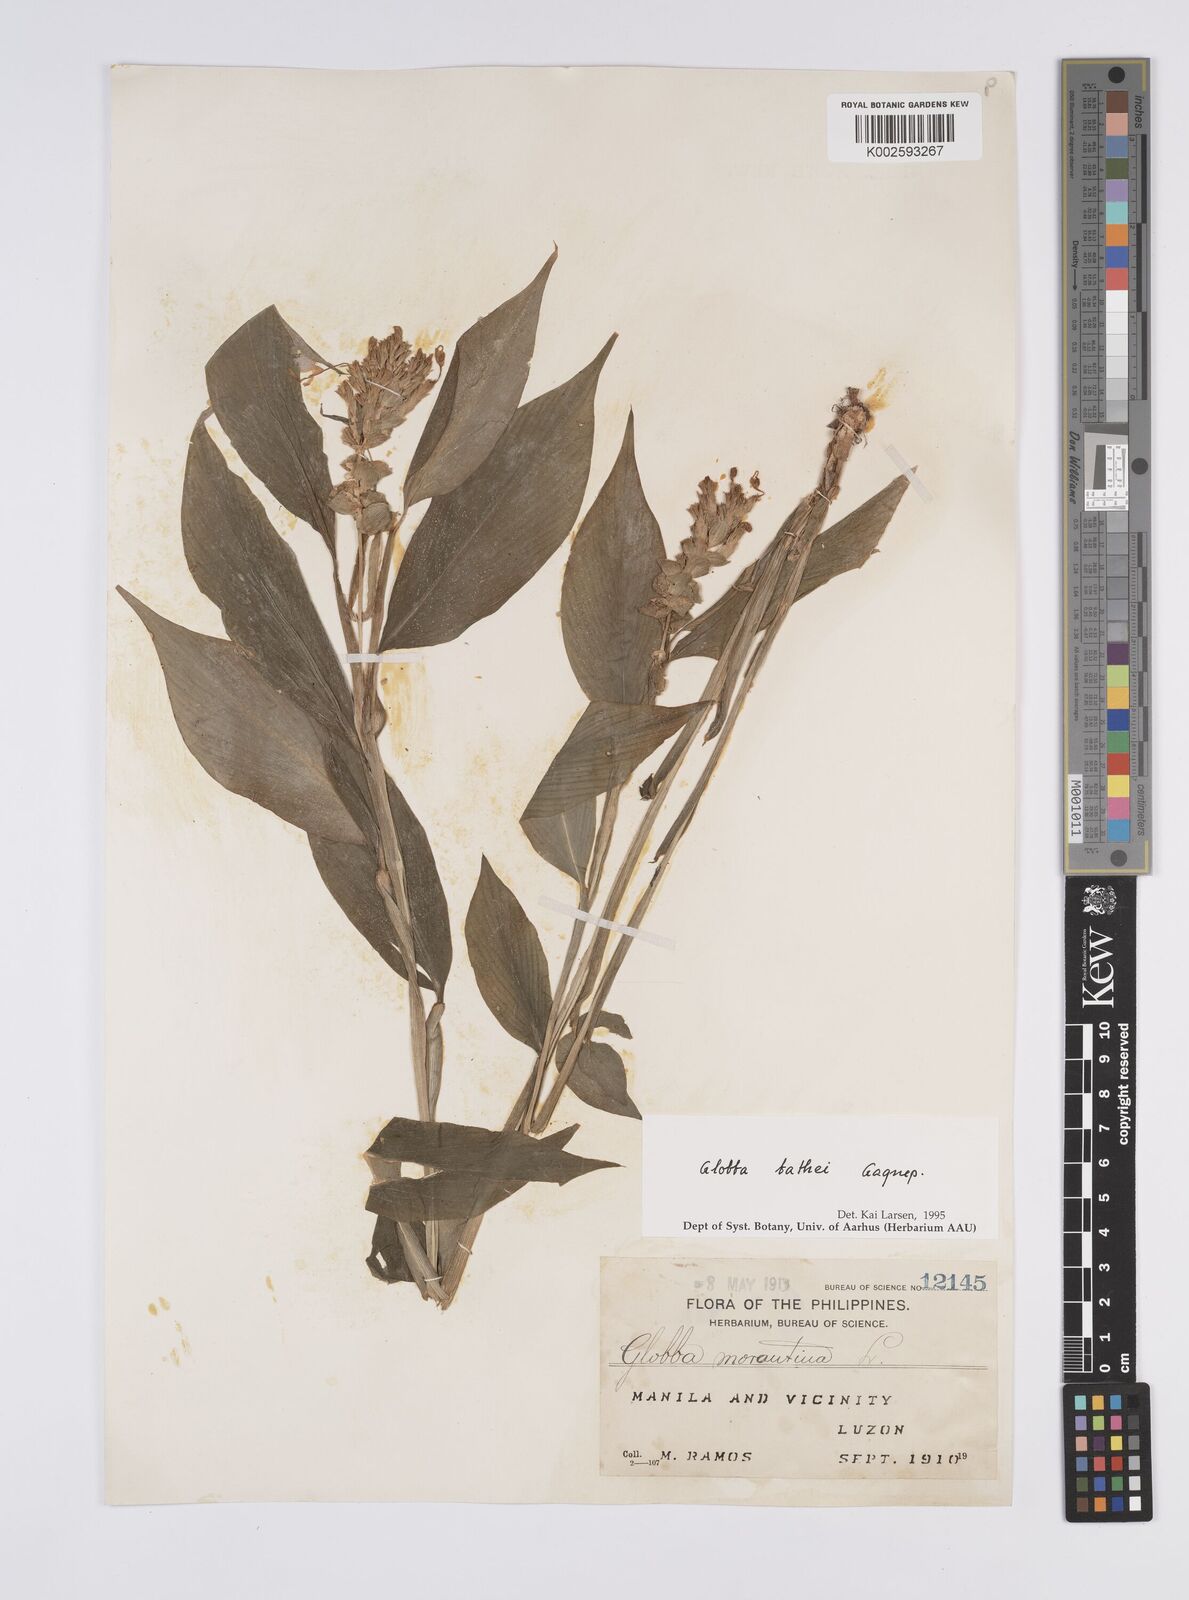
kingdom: Plantae
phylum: Tracheophyta
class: Liliopsida
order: Zingiberales
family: Zingiberaceae
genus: Globba
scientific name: Globba marantina
